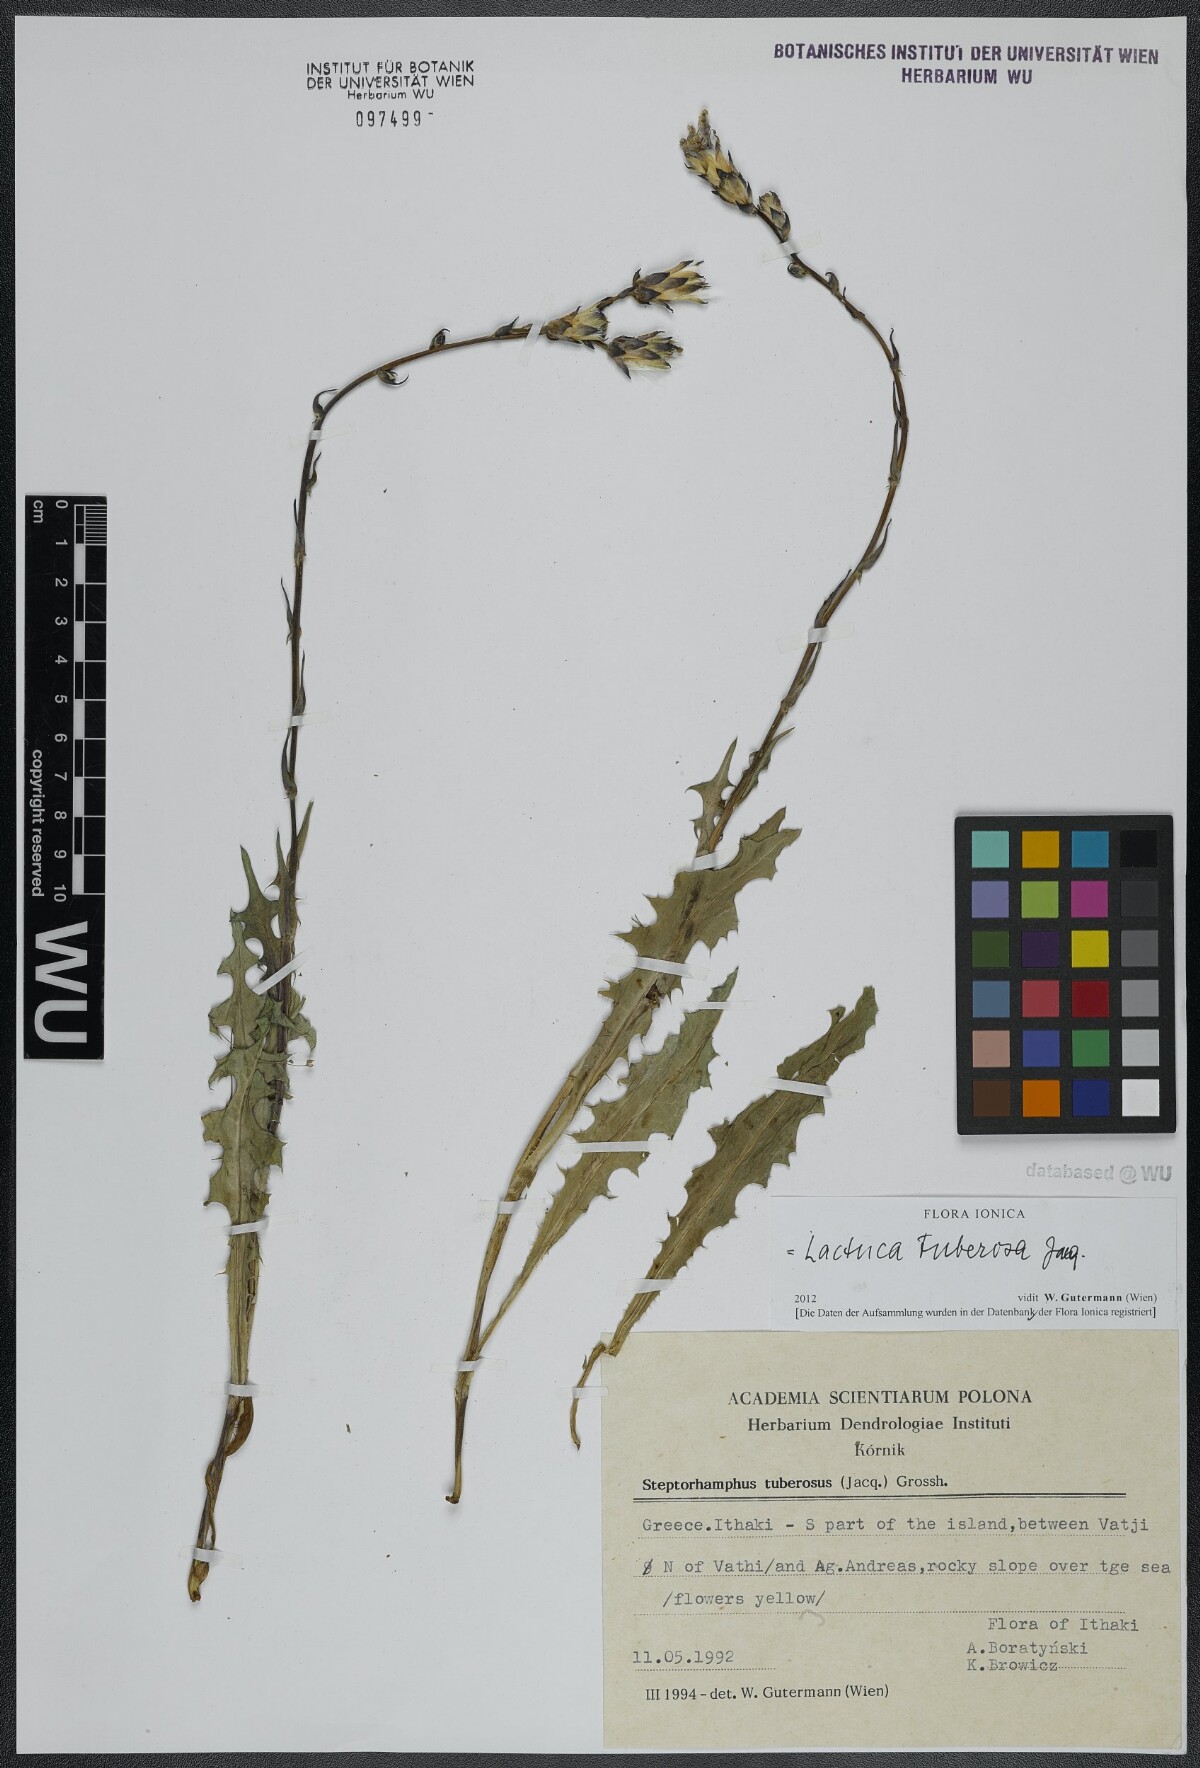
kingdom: Plantae
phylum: Tracheophyta
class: Magnoliopsida
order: Asterales
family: Asteraceae
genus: Lactuca
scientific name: Lactuca tuberosa
